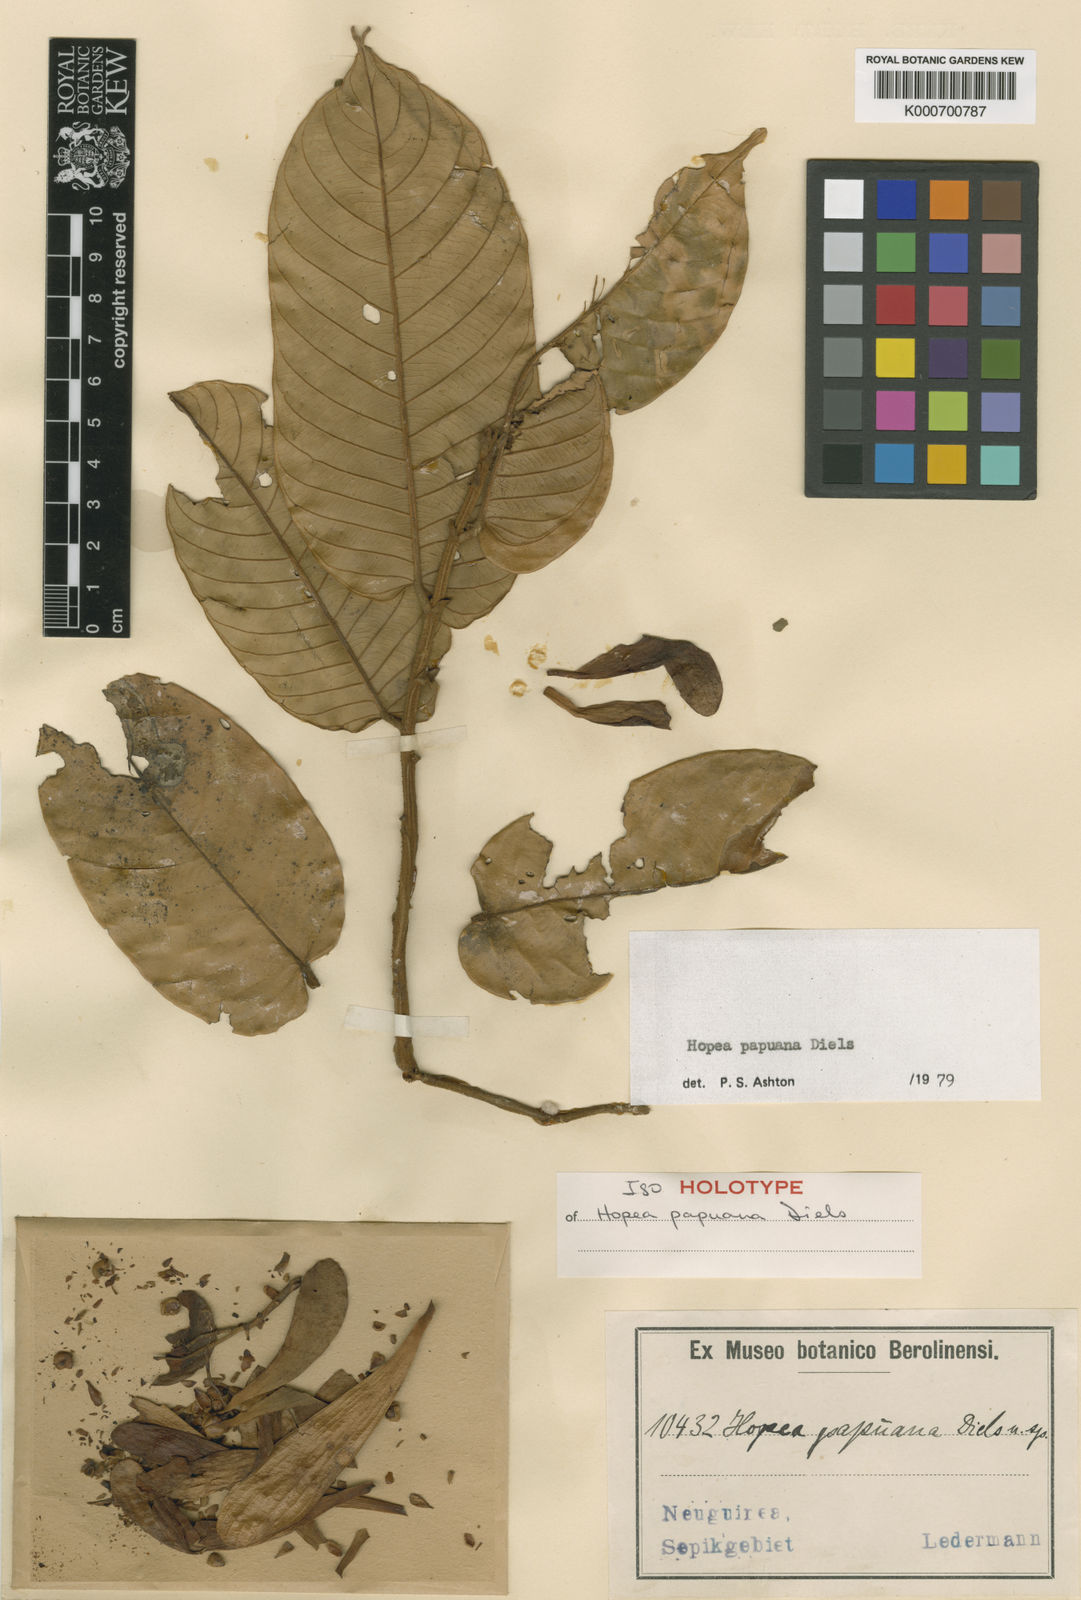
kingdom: Plantae
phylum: Tracheophyta
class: Magnoliopsida
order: Malvales
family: Dipterocarpaceae
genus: Hopea
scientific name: Hopea papuana
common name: Light hopea
